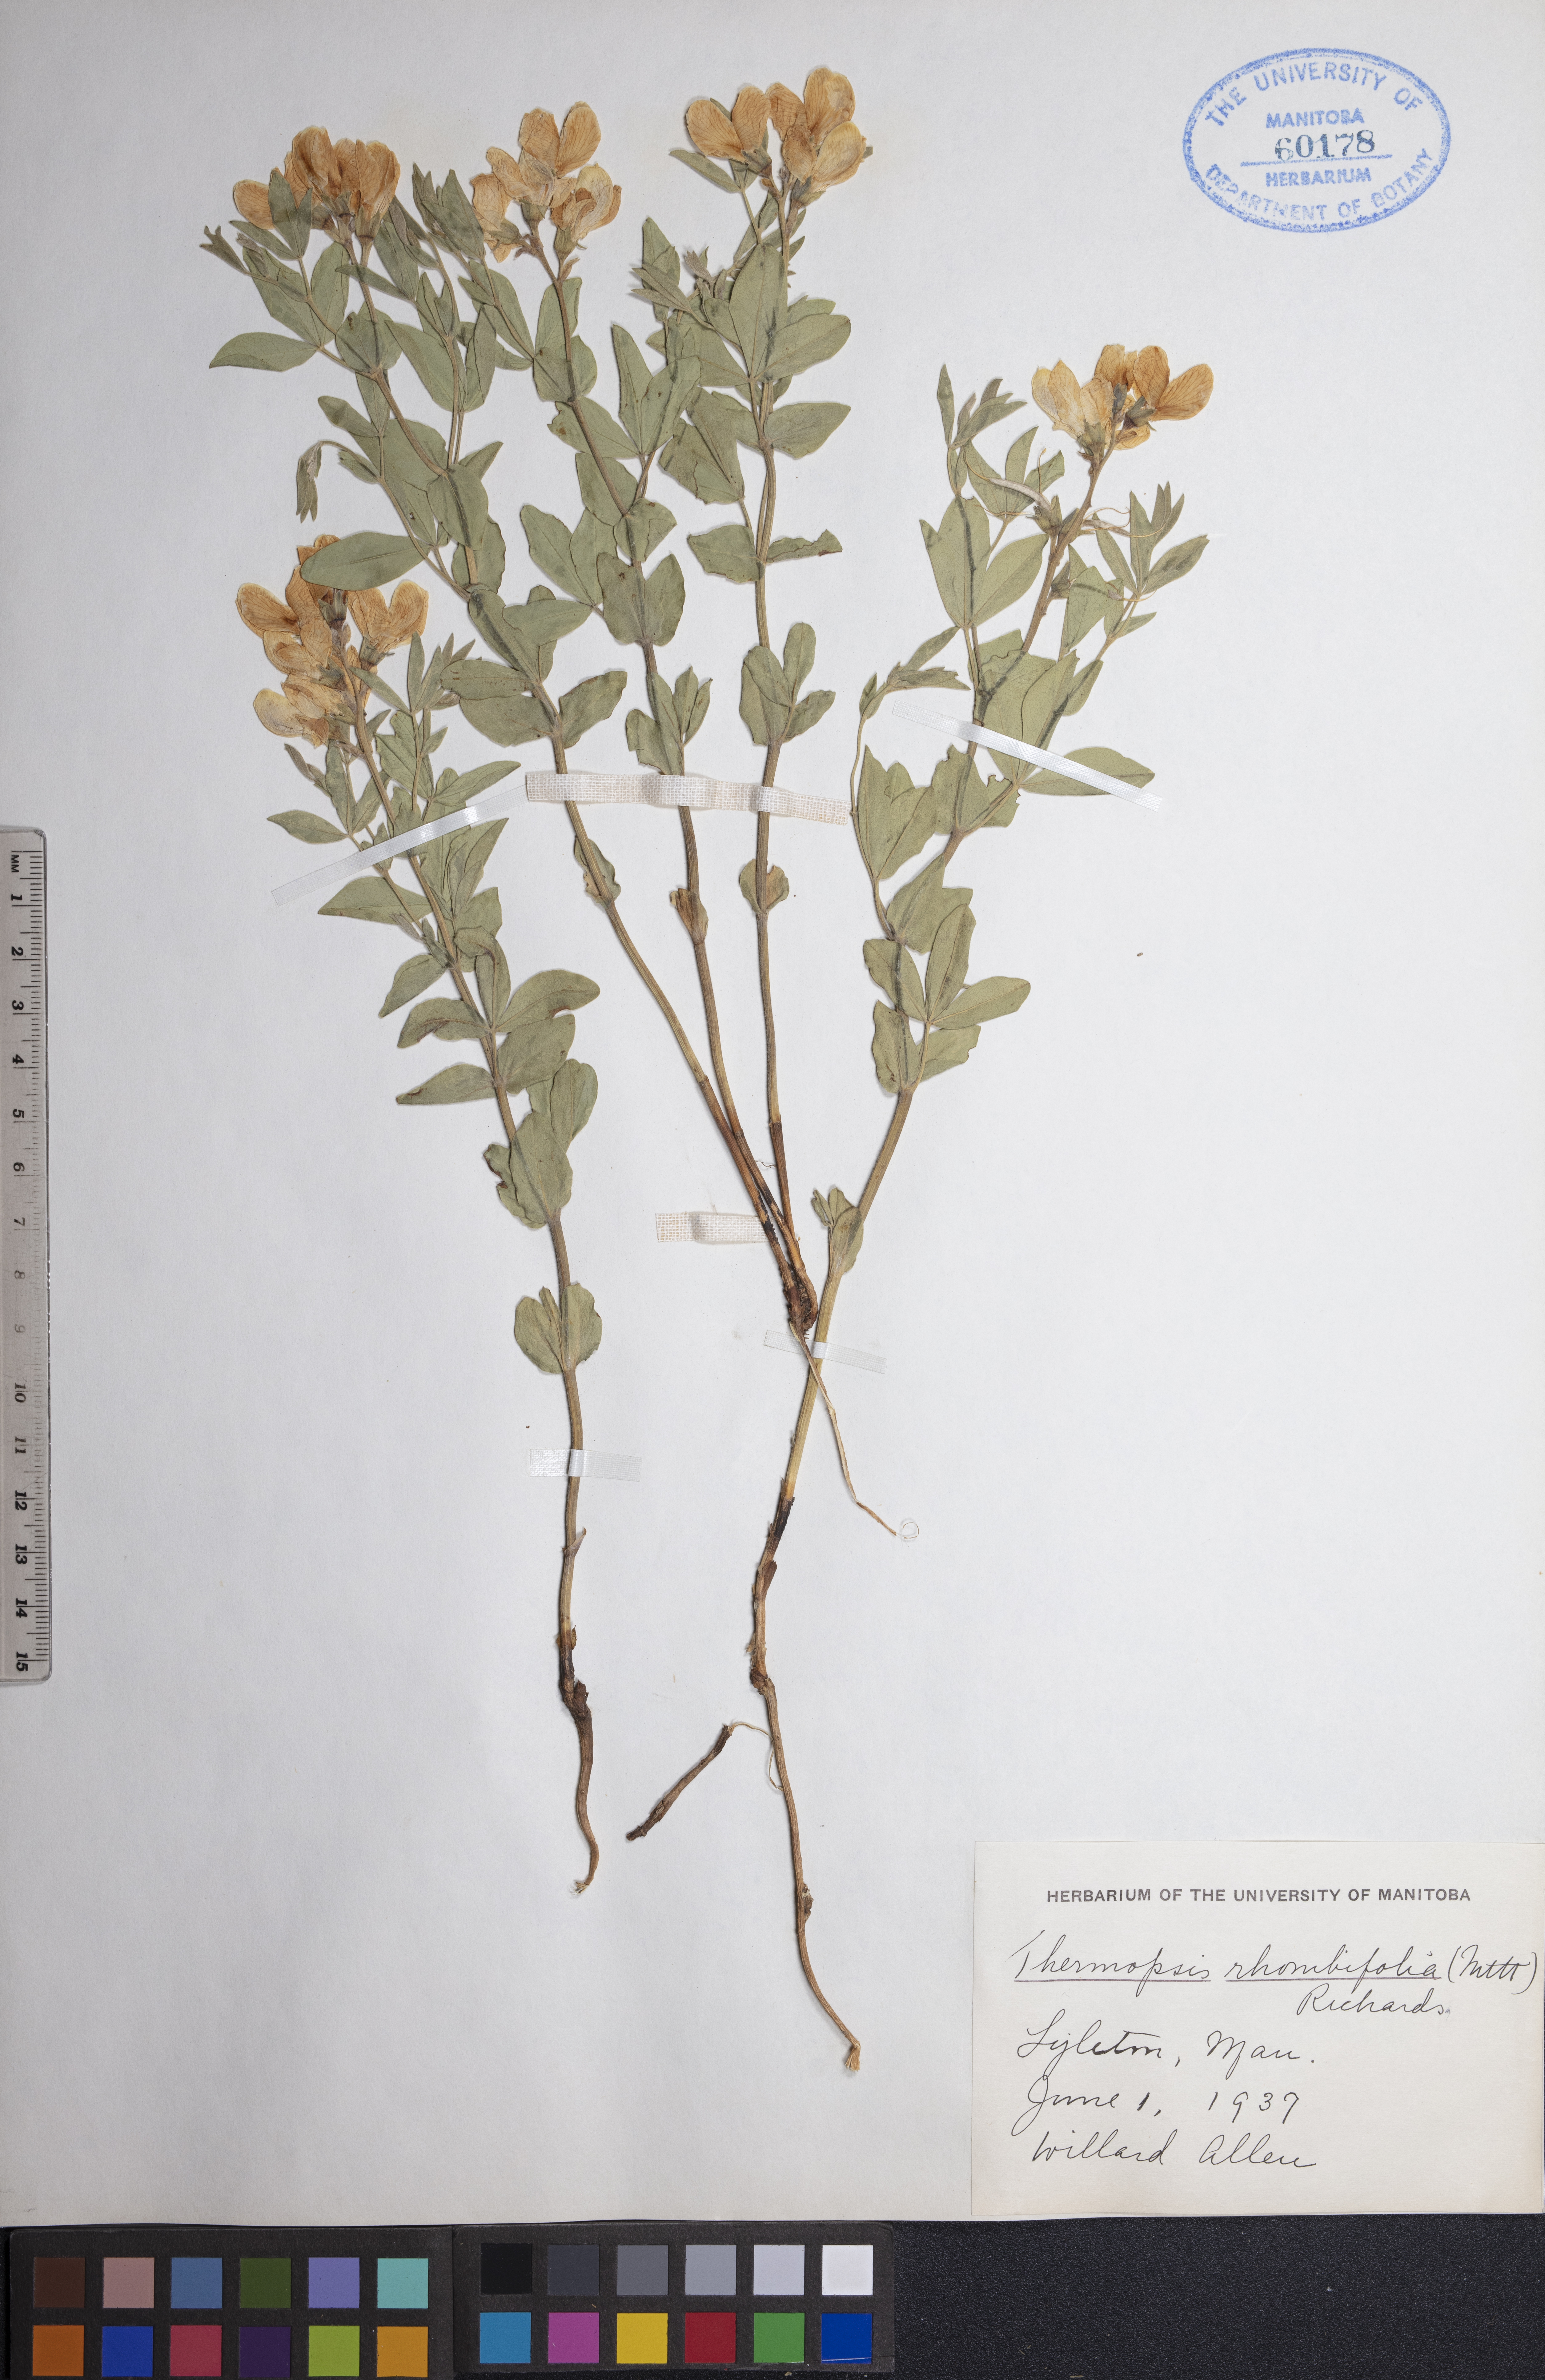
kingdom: Plantae
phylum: Tracheophyta
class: Magnoliopsida
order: Fabales
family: Fabaceae
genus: Thermopsis
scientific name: Thermopsis rhombifolia
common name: Circle-pod-pea
